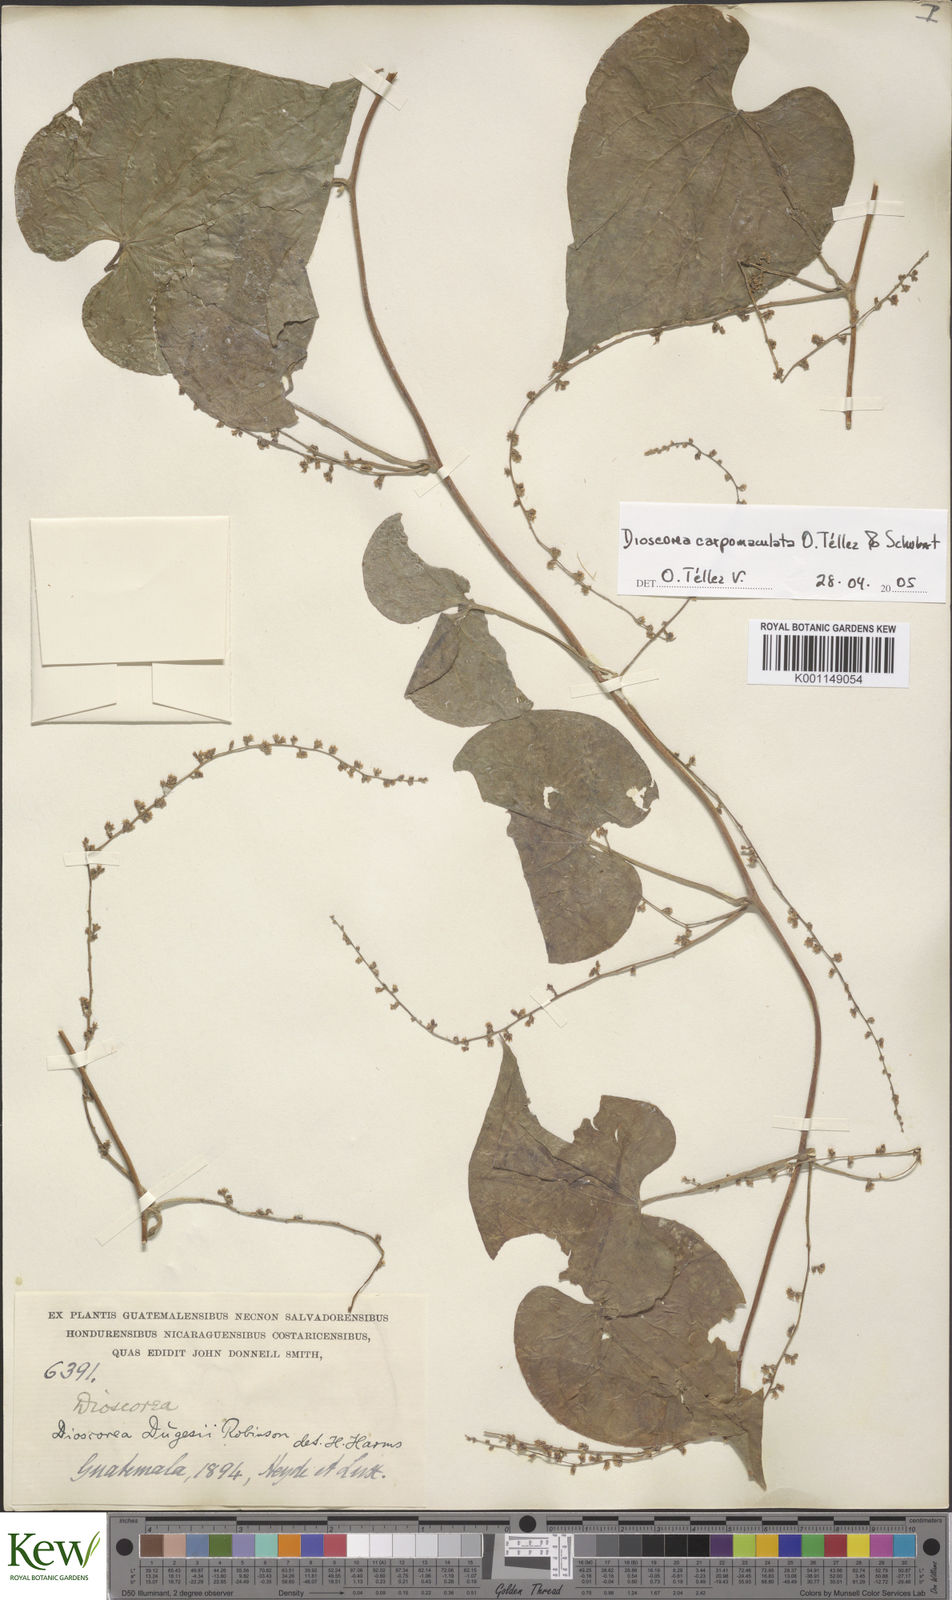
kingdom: Plantae
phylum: Tracheophyta
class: Liliopsida
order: Dioscoreales
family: Dioscoreaceae
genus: Dioscorea
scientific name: Dioscorea
